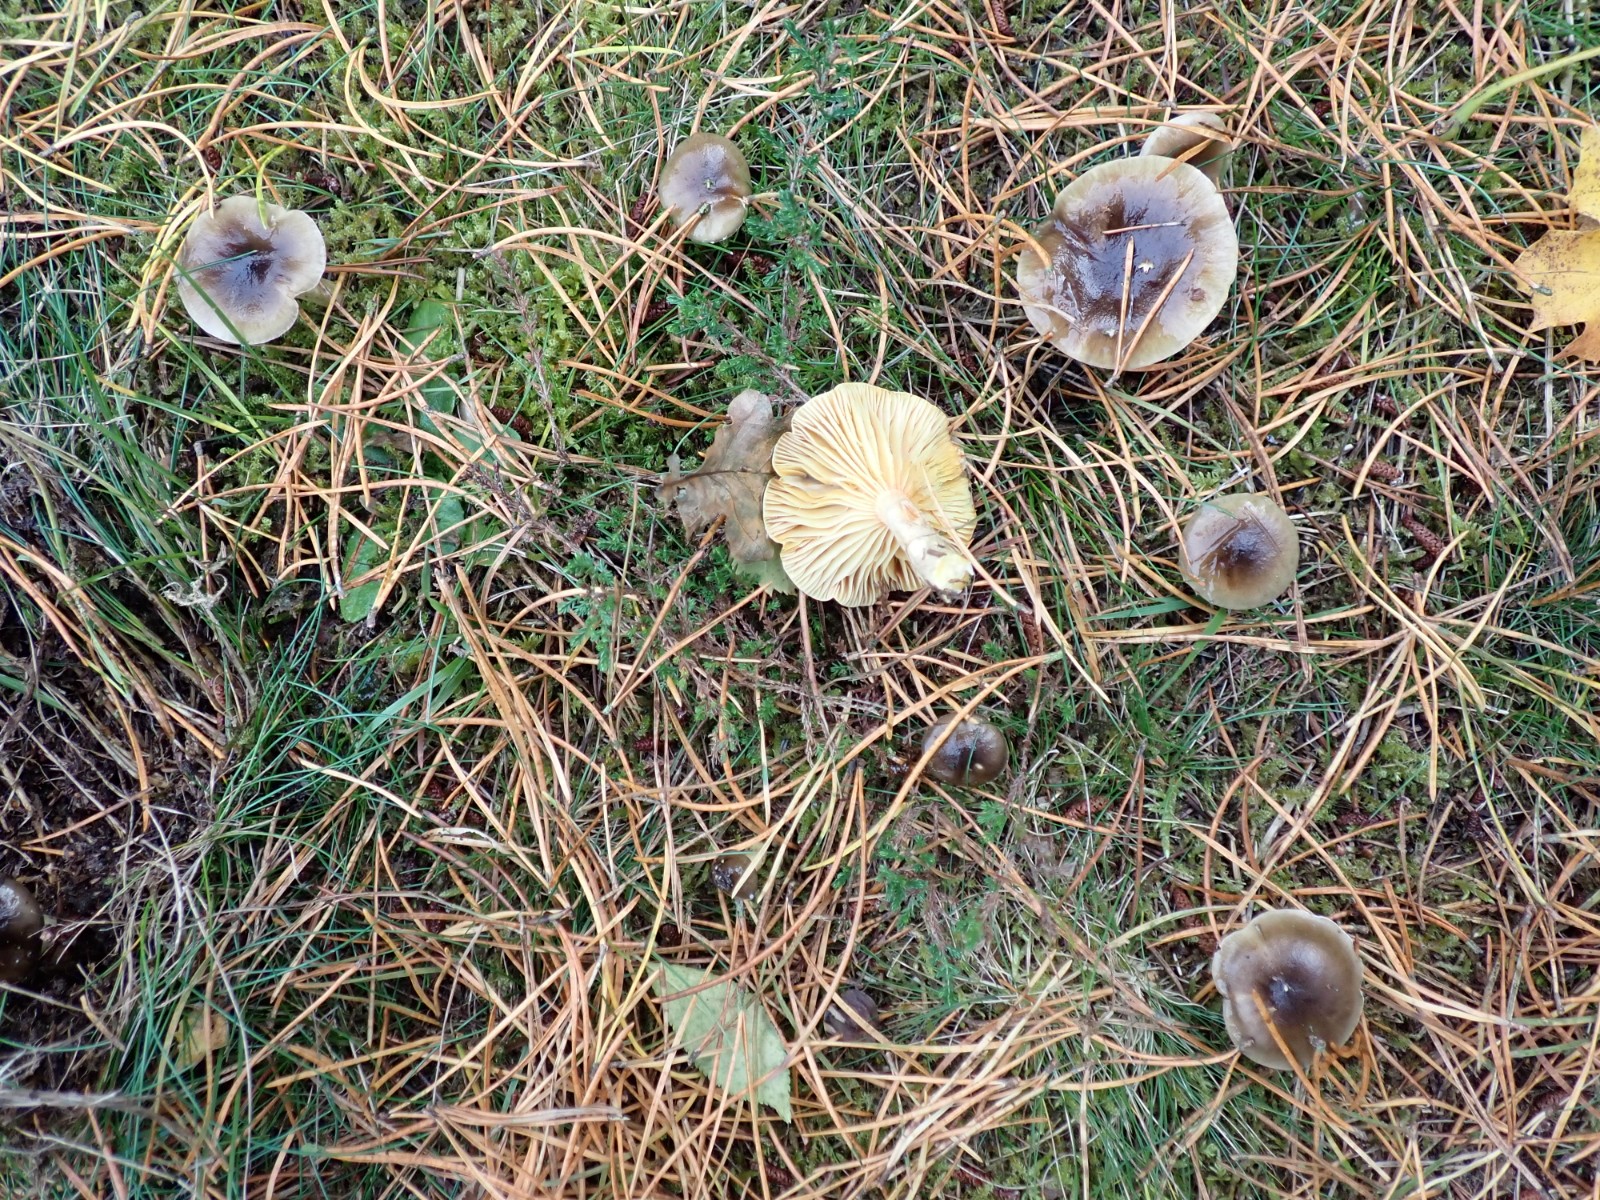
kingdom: Fungi
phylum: Basidiomycota
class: Agaricomycetes
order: Agaricales
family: Hygrophoraceae
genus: Hygrophorus
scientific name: Hygrophorus hypothejus
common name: frost-sneglehat
